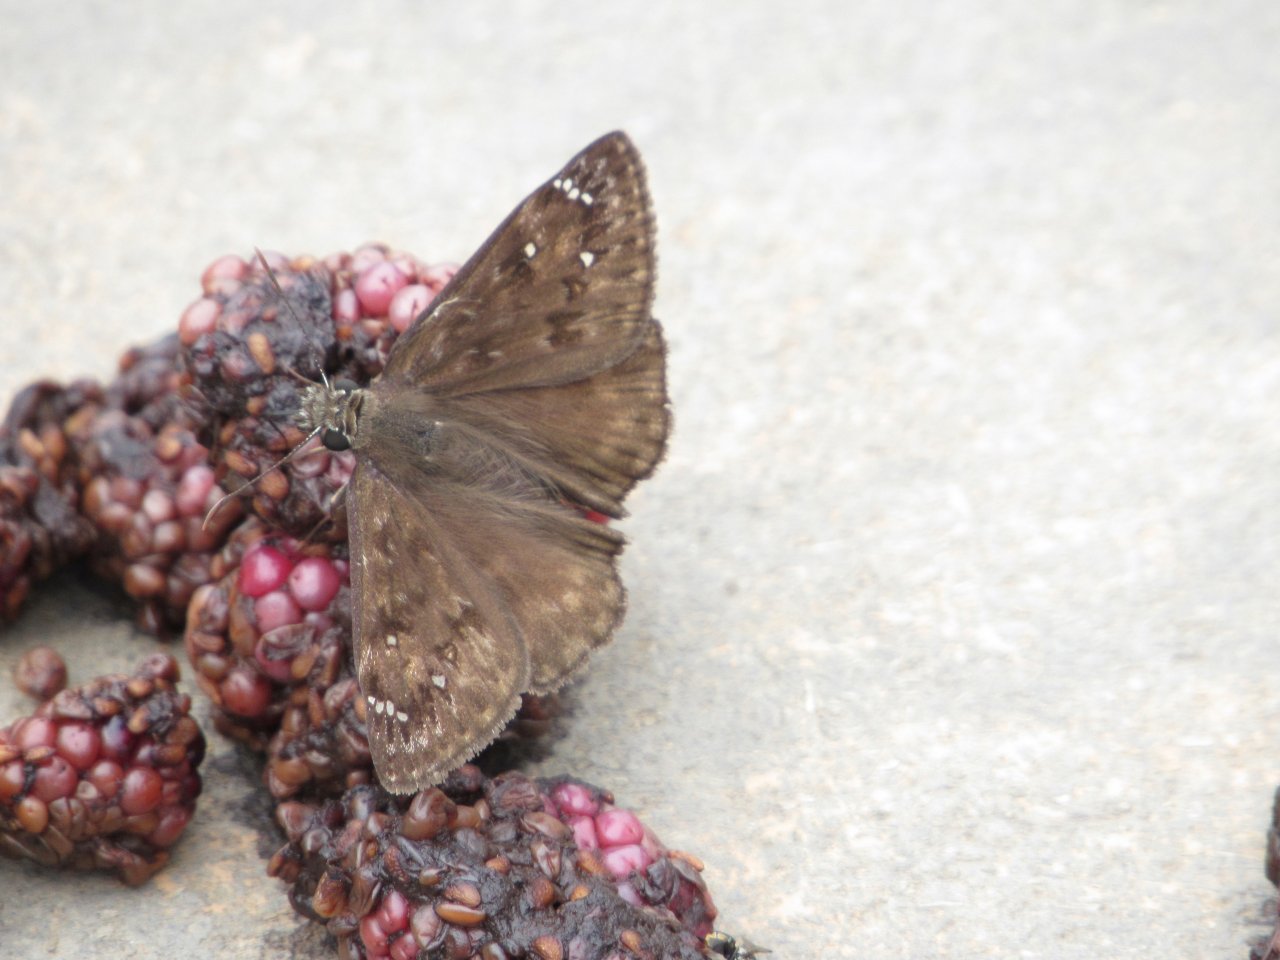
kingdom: Animalia
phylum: Arthropoda
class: Insecta
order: Lepidoptera
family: Hesperiidae
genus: Gesta
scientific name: Gesta
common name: Horace's Duskywing
